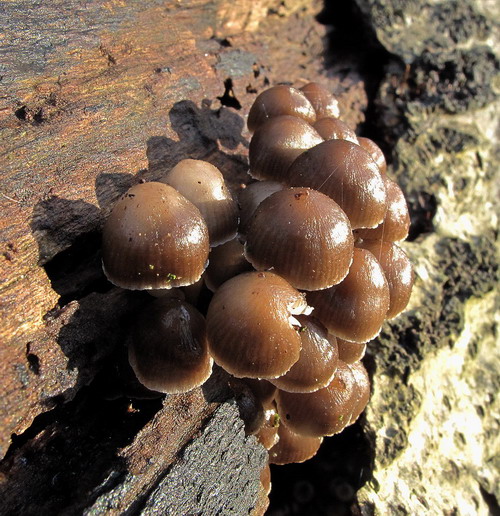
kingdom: Fungi
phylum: Basidiomycota
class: Agaricomycetes
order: Agaricales
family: Mycenaceae
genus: Mycena
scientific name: Mycena tintinnabulum
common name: vinter-huesvamp
